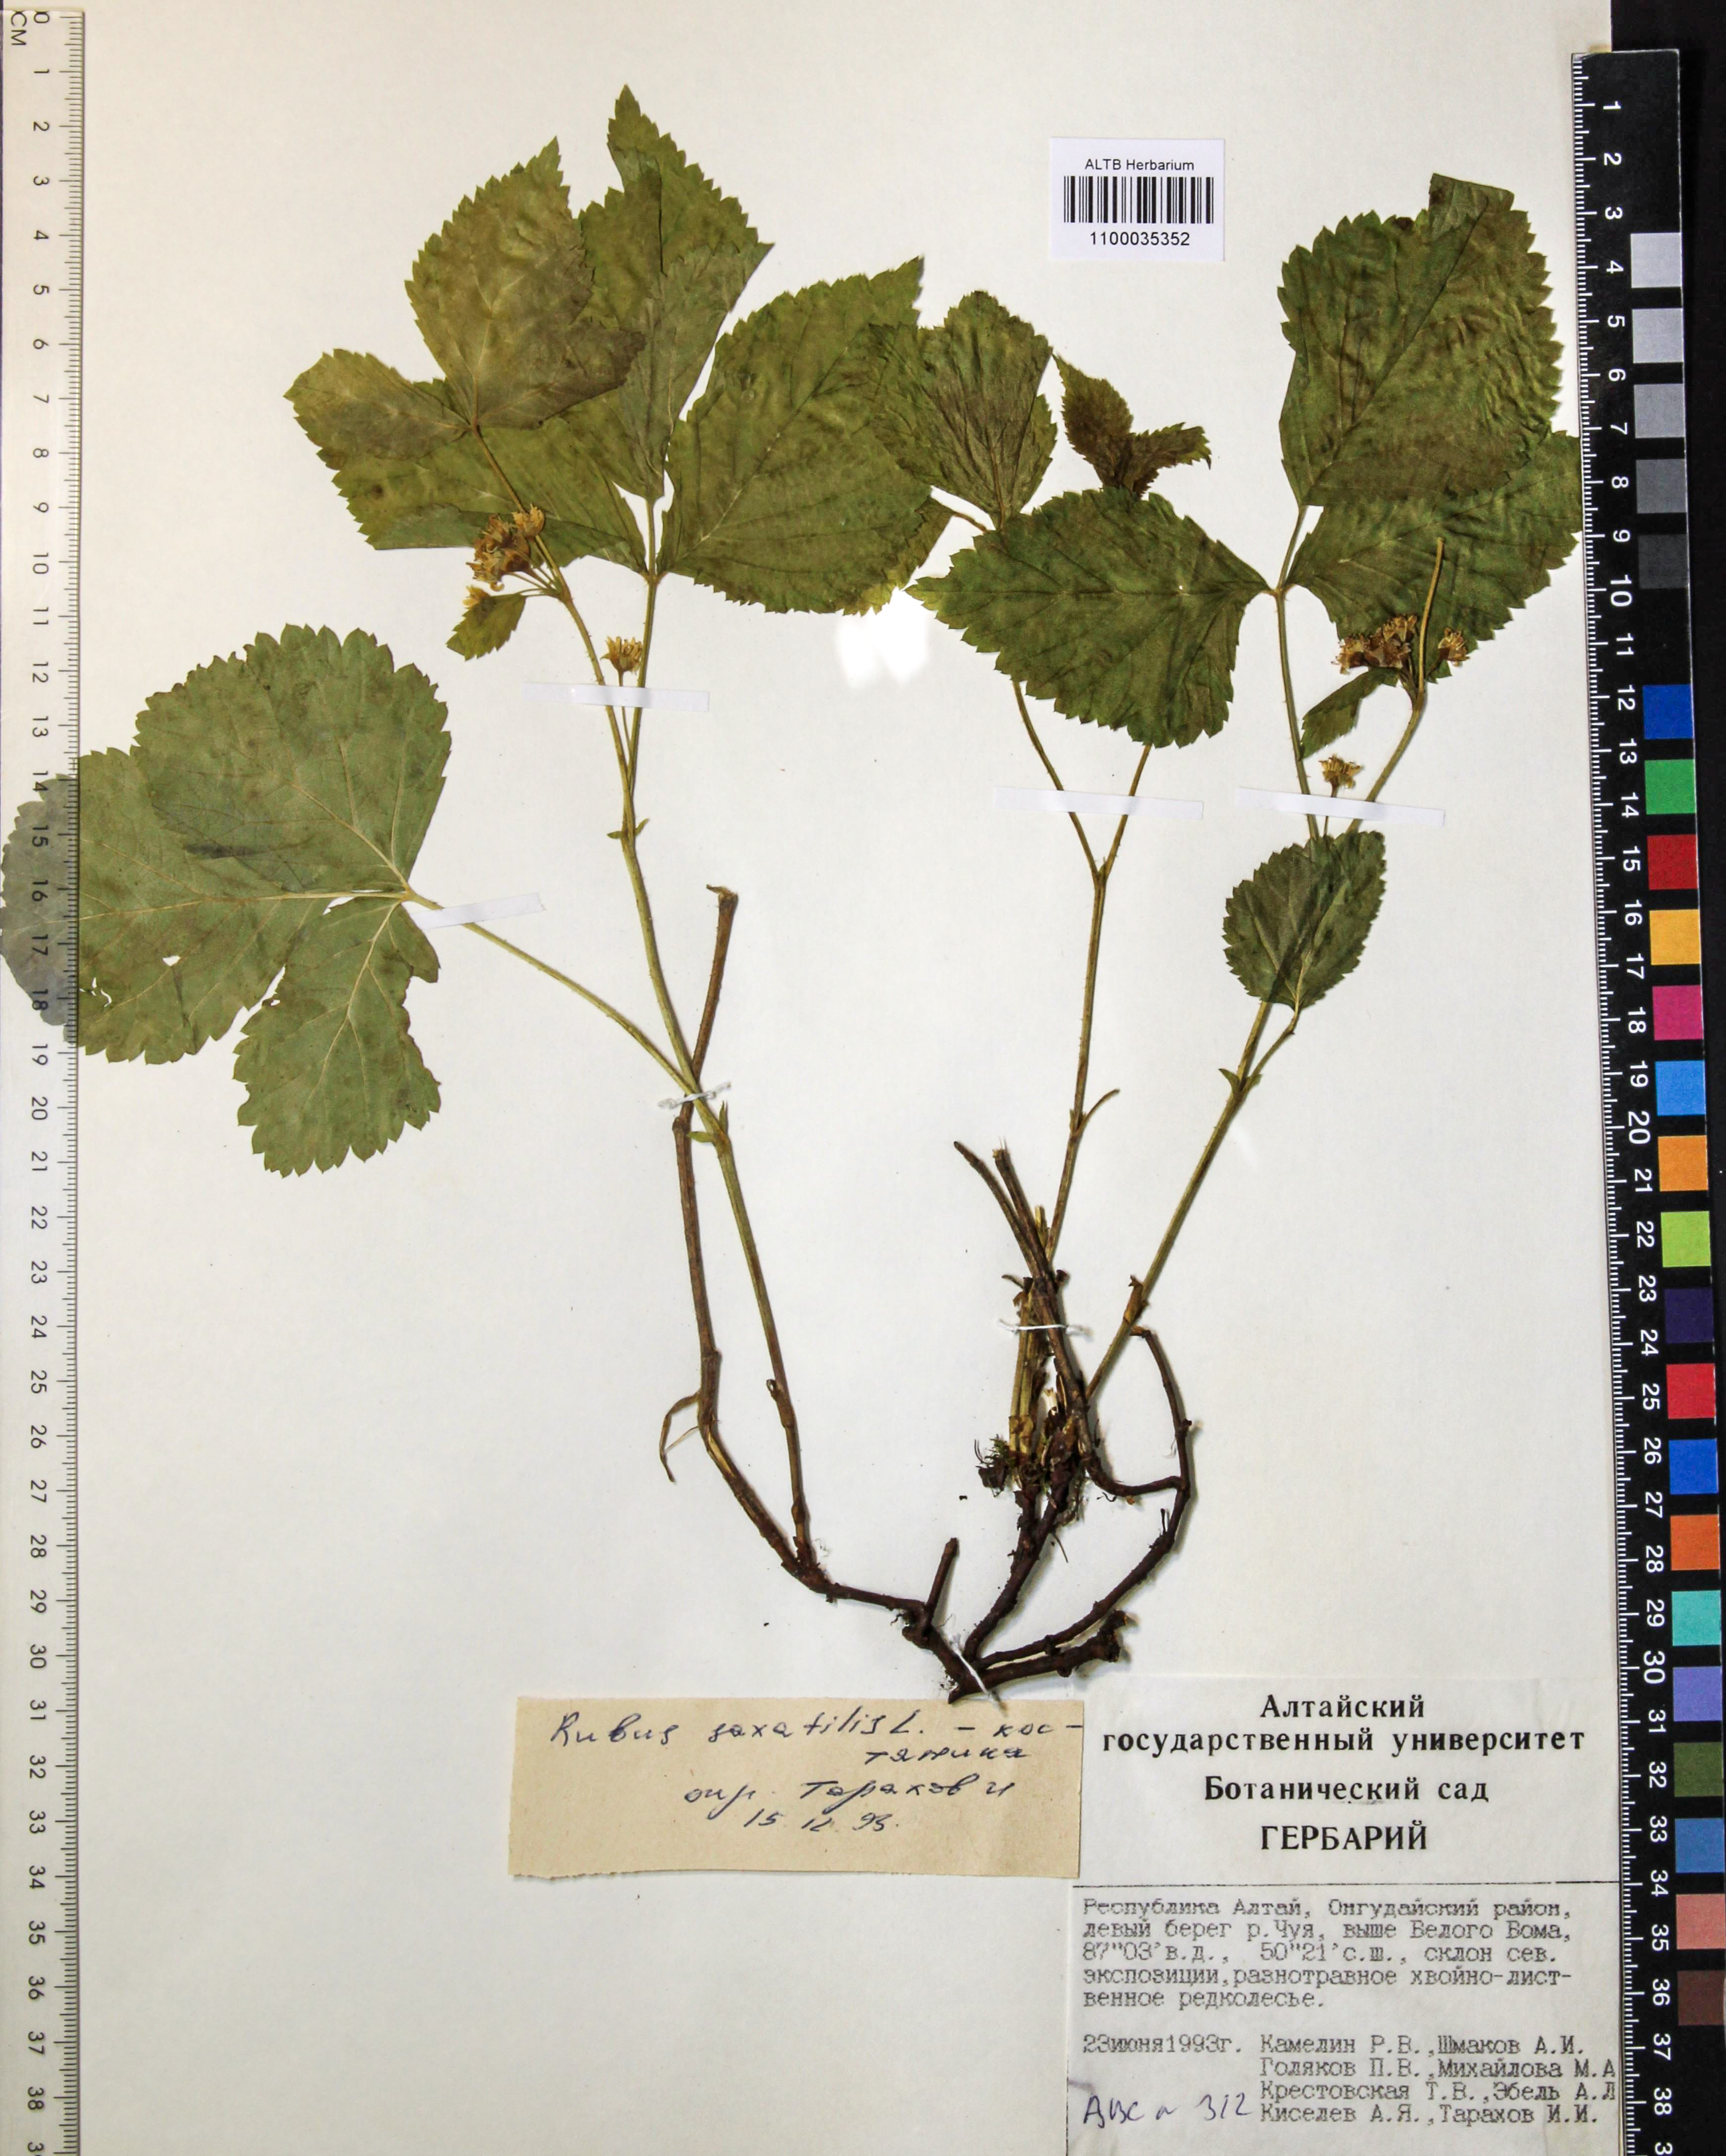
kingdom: Plantae
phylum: Tracheophyta
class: Magnoliopsida
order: Rosales
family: Rosaceae
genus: Rubus
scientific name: Rubus saxatilis
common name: Stone bramble
